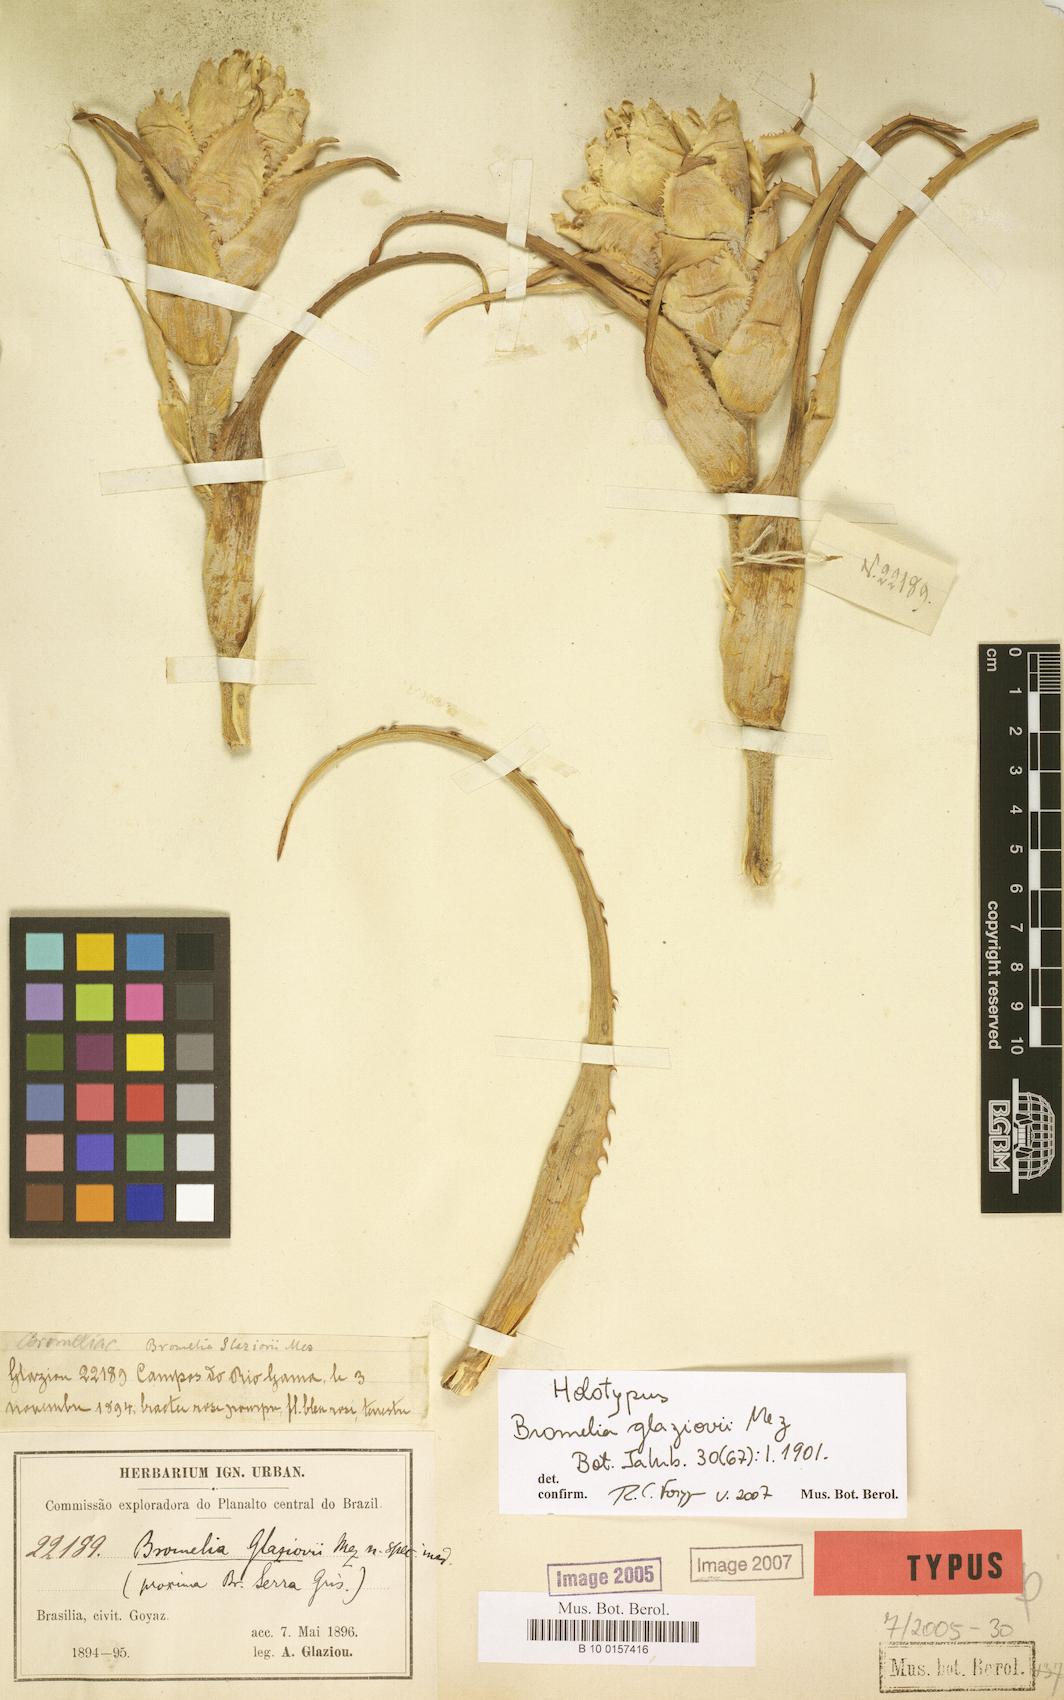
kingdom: Plantae
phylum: Tracheophyta
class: Liliopsida
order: Poales
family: Bromeliaceae
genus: Bromelia
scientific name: Bromelia glaziovii
